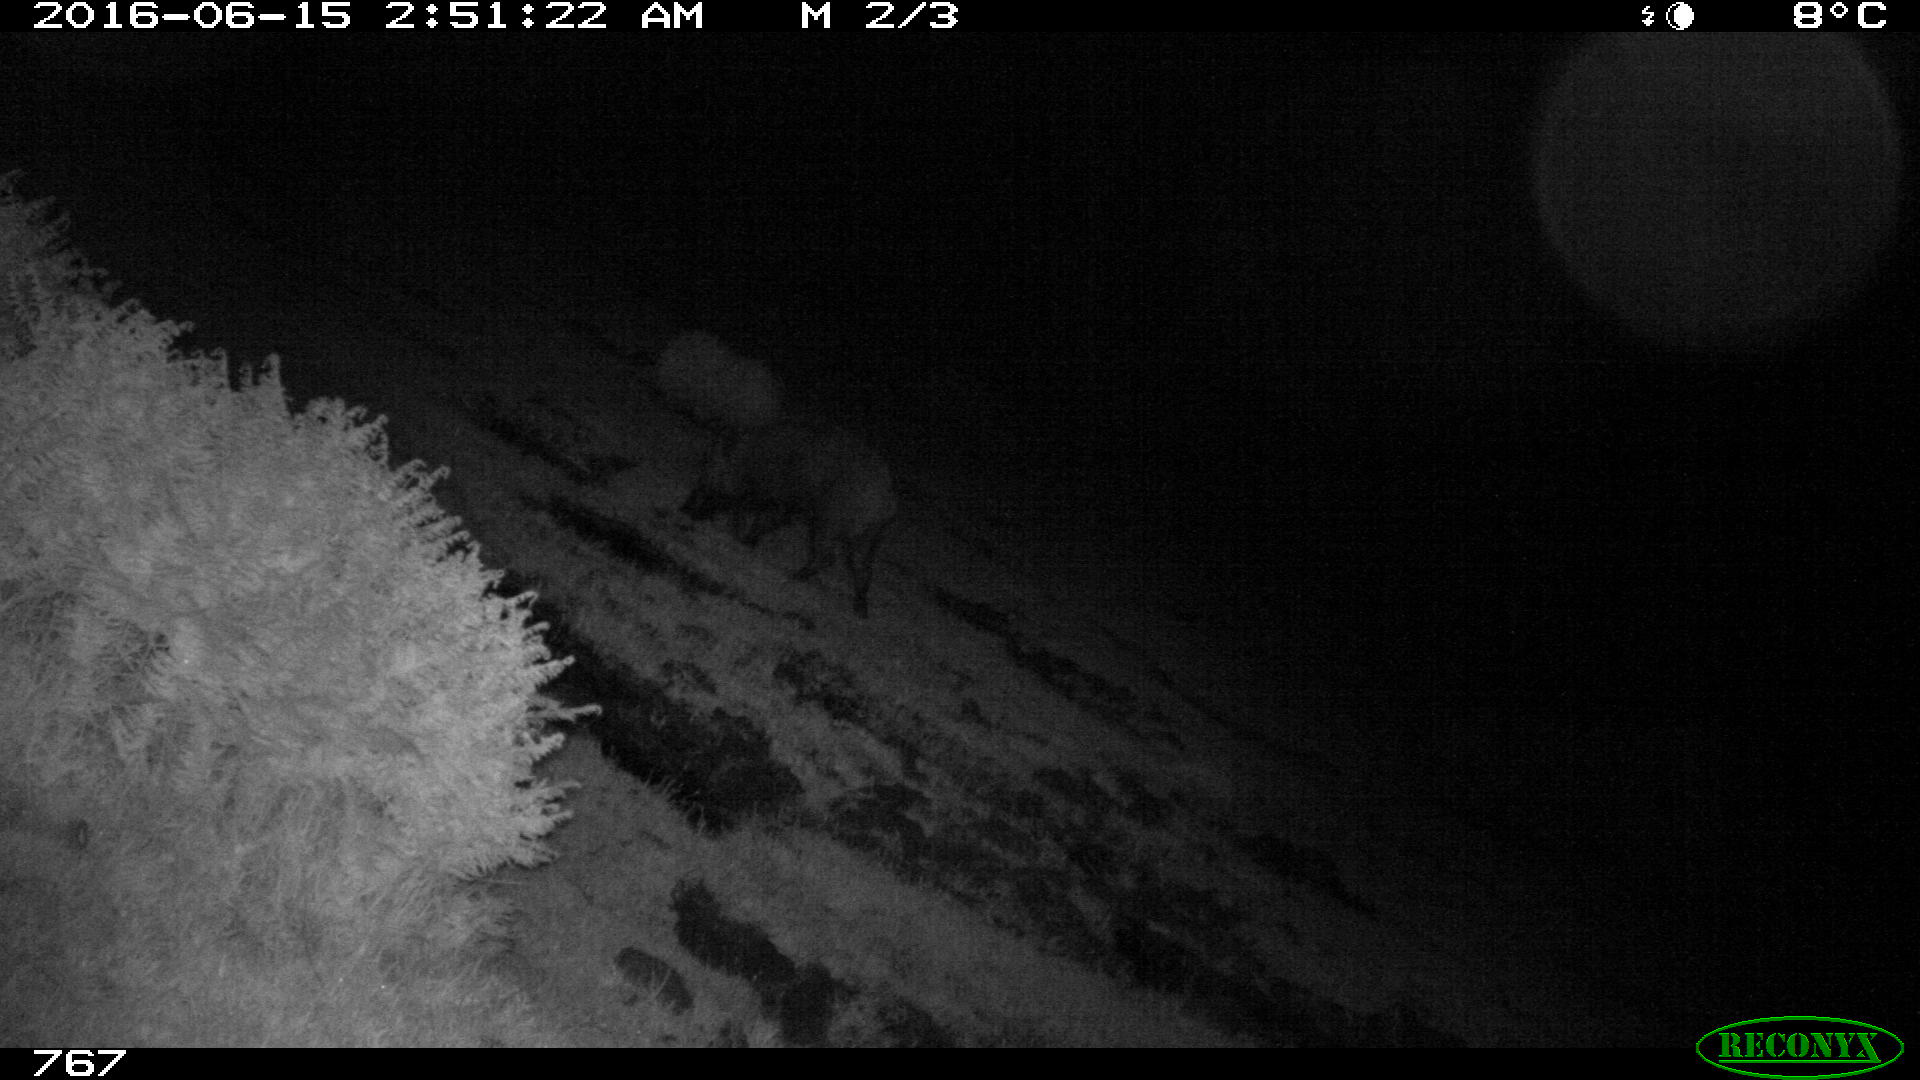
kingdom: Animalia
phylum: Chordata
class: Mammalia
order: Artiodactyla
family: Suidae
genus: Sus
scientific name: Sus scrofa
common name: Wild boar
